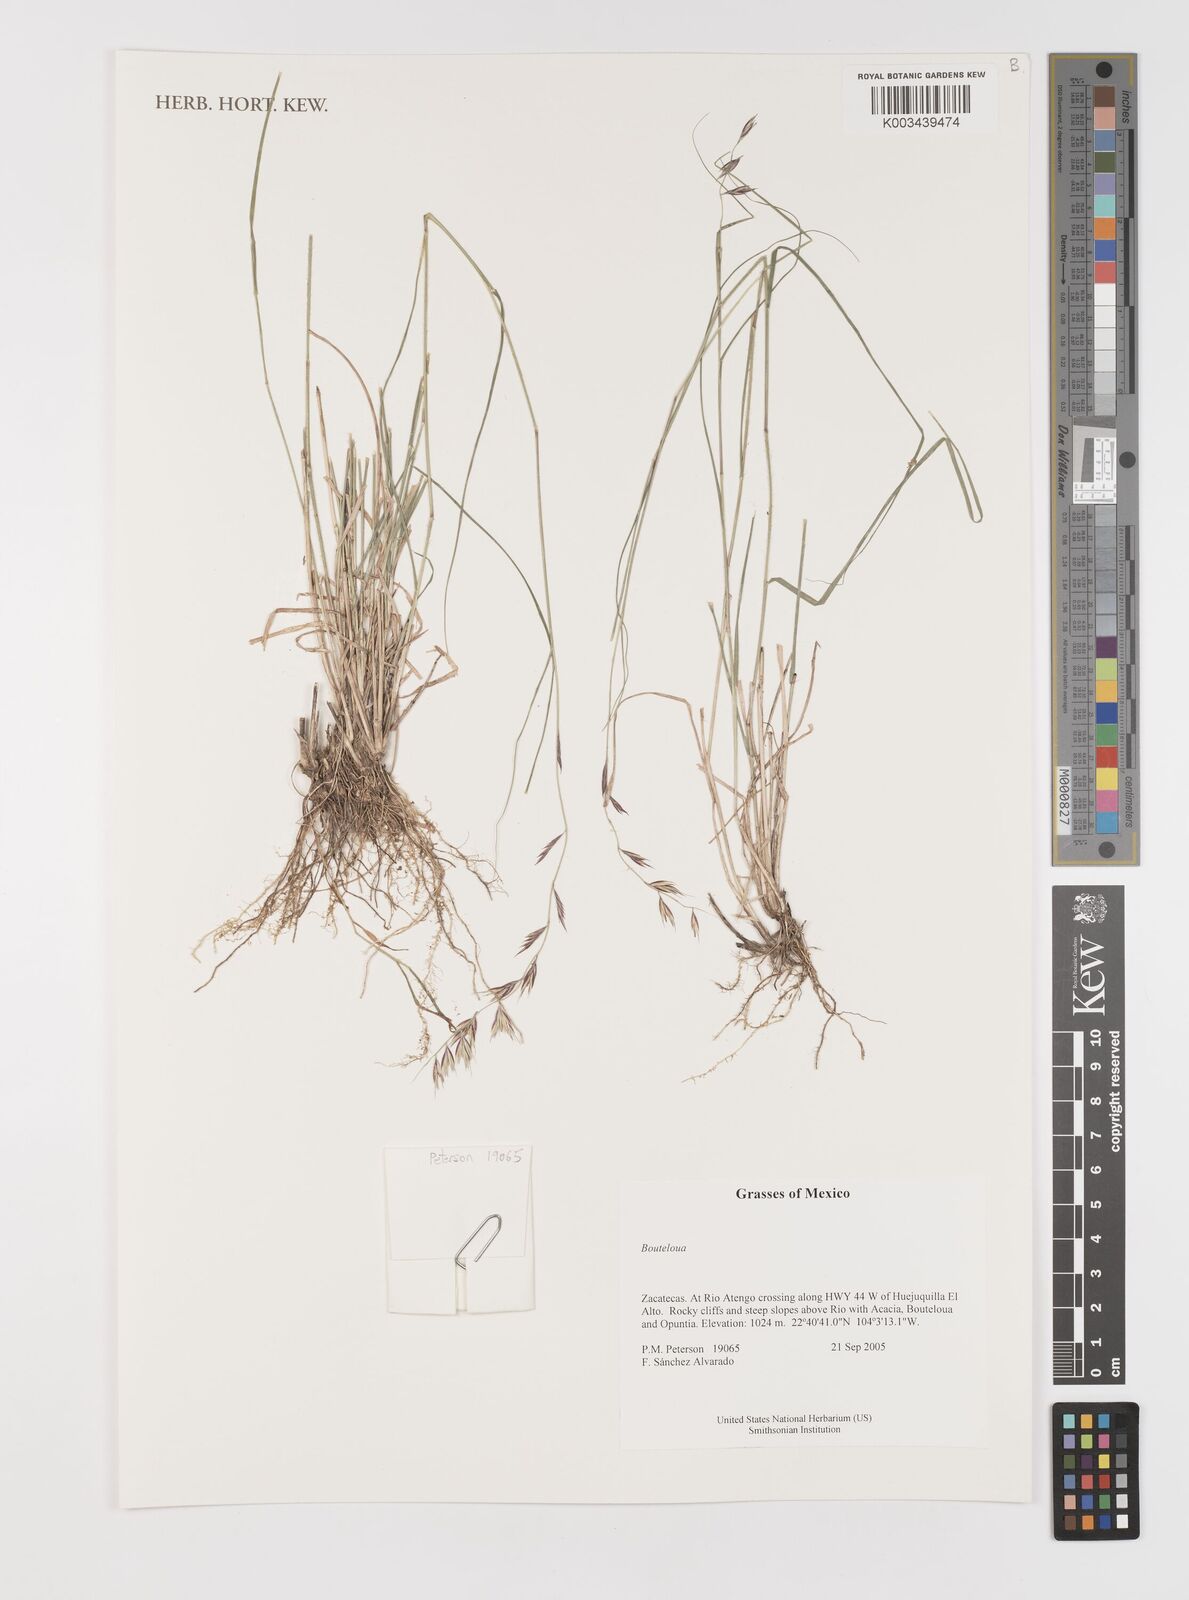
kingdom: Plantae
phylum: Tracheophyta
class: Liliopsida
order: Poales
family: Poaceae
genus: Bouteloua
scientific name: Bouteloua
